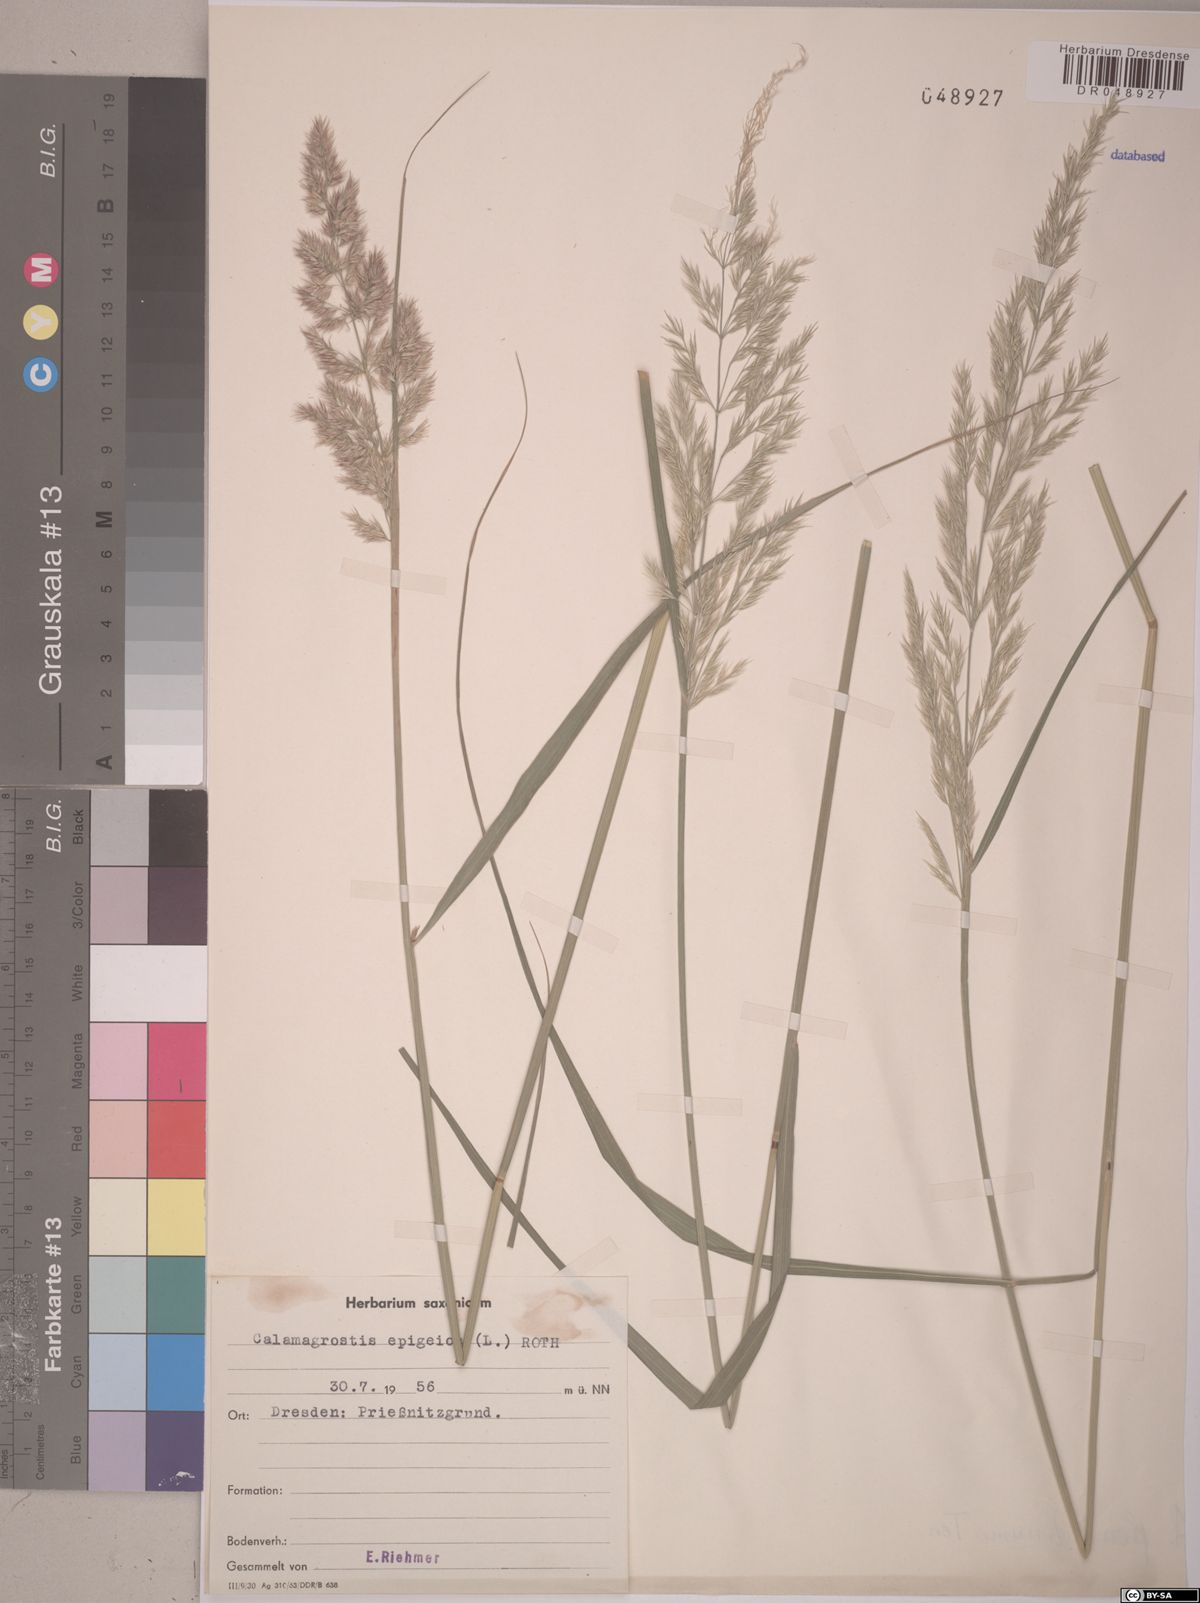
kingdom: Plantae
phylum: Tracheophyta
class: Liliopsida
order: Poales
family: Poaceae
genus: Calamagrostis
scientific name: Calamagrostis epigejos
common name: Wood small-reed
